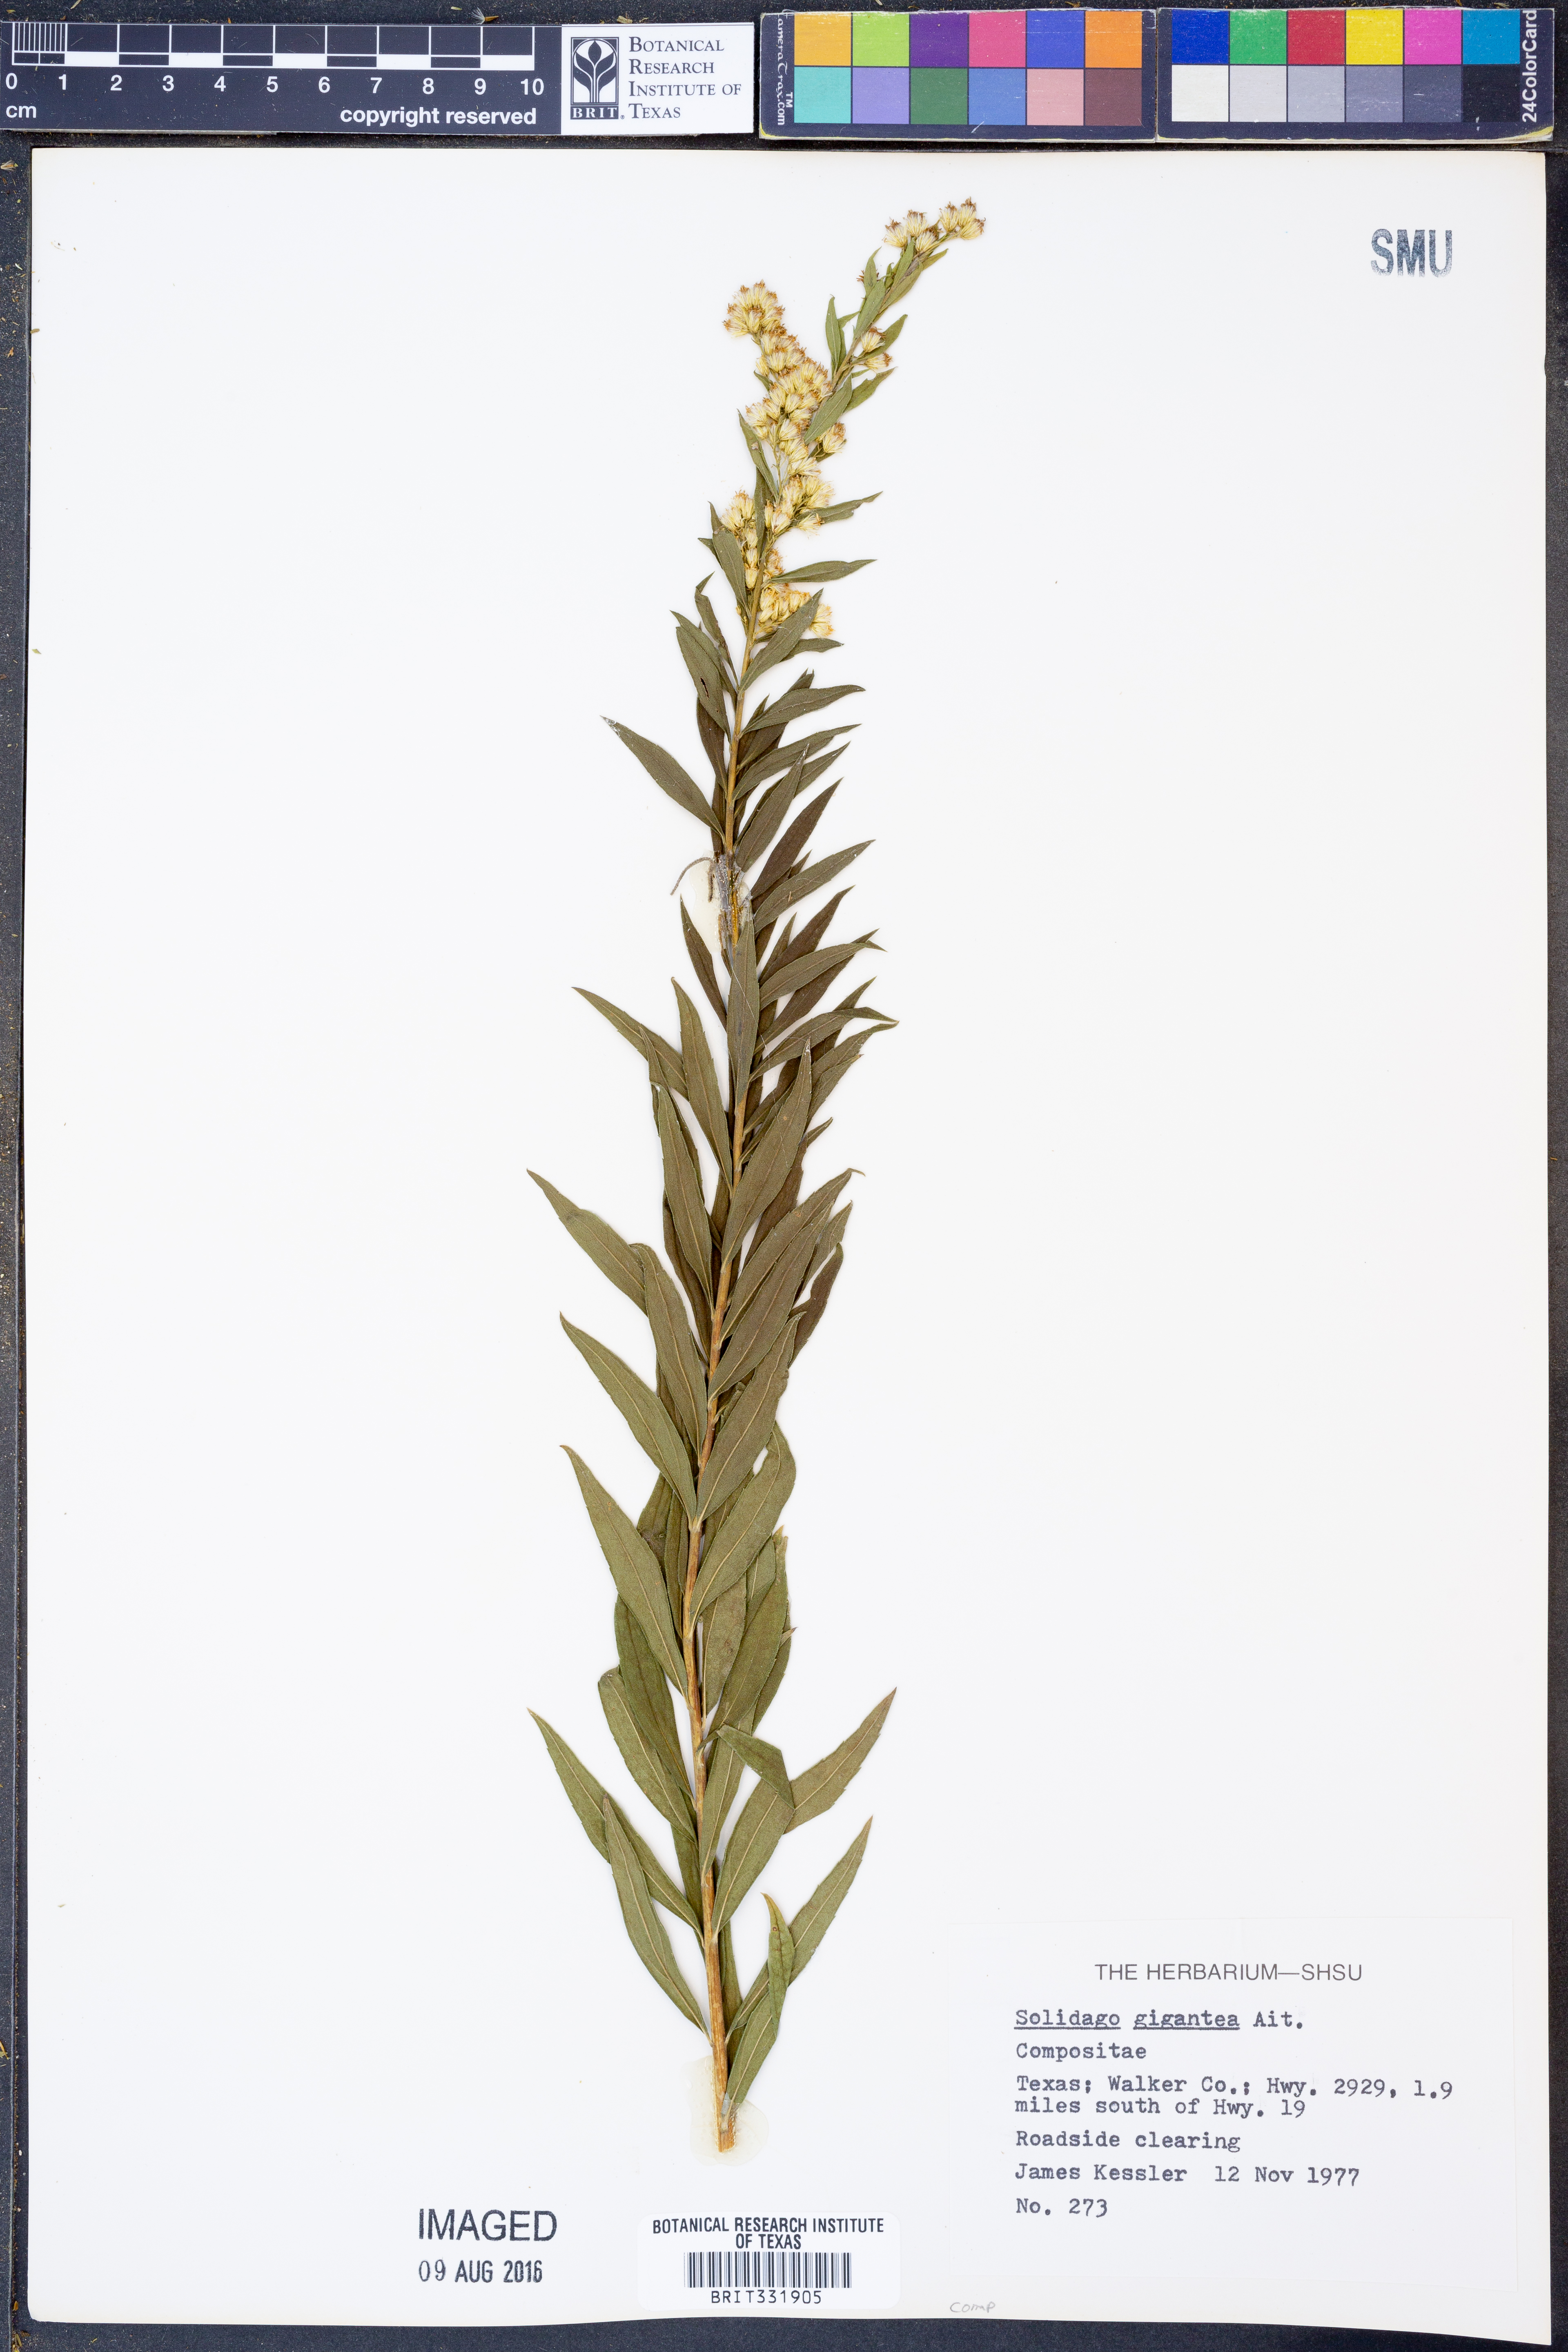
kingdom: Plantae
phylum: Tracheophyta
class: Magnoliopsida
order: Asterales
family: Asteraceae
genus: Solidago
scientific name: Solidago gigantea
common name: Giant goldenrod
